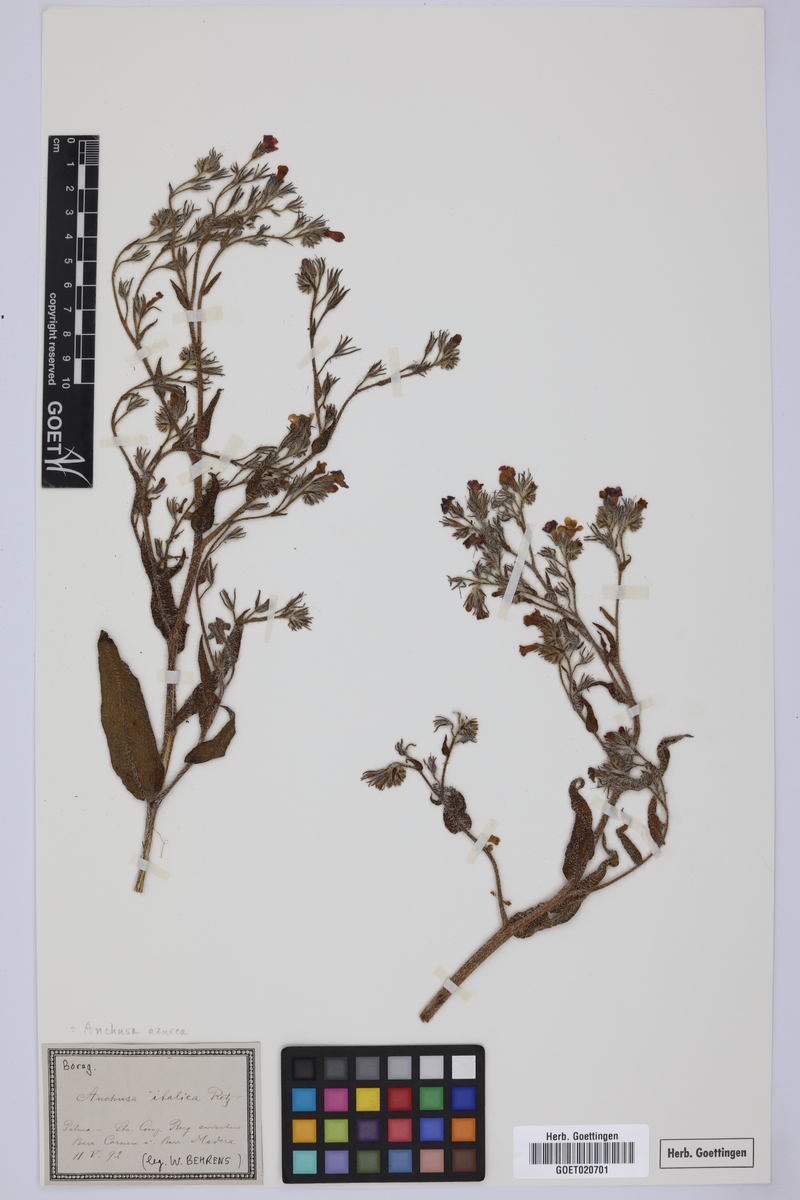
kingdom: Plantae
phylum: Tracheophyta
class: Magnoliopsida
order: Boraginales
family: Boraginaceae
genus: Anchusa
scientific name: Anchusa azurea
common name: Garden anchusa
